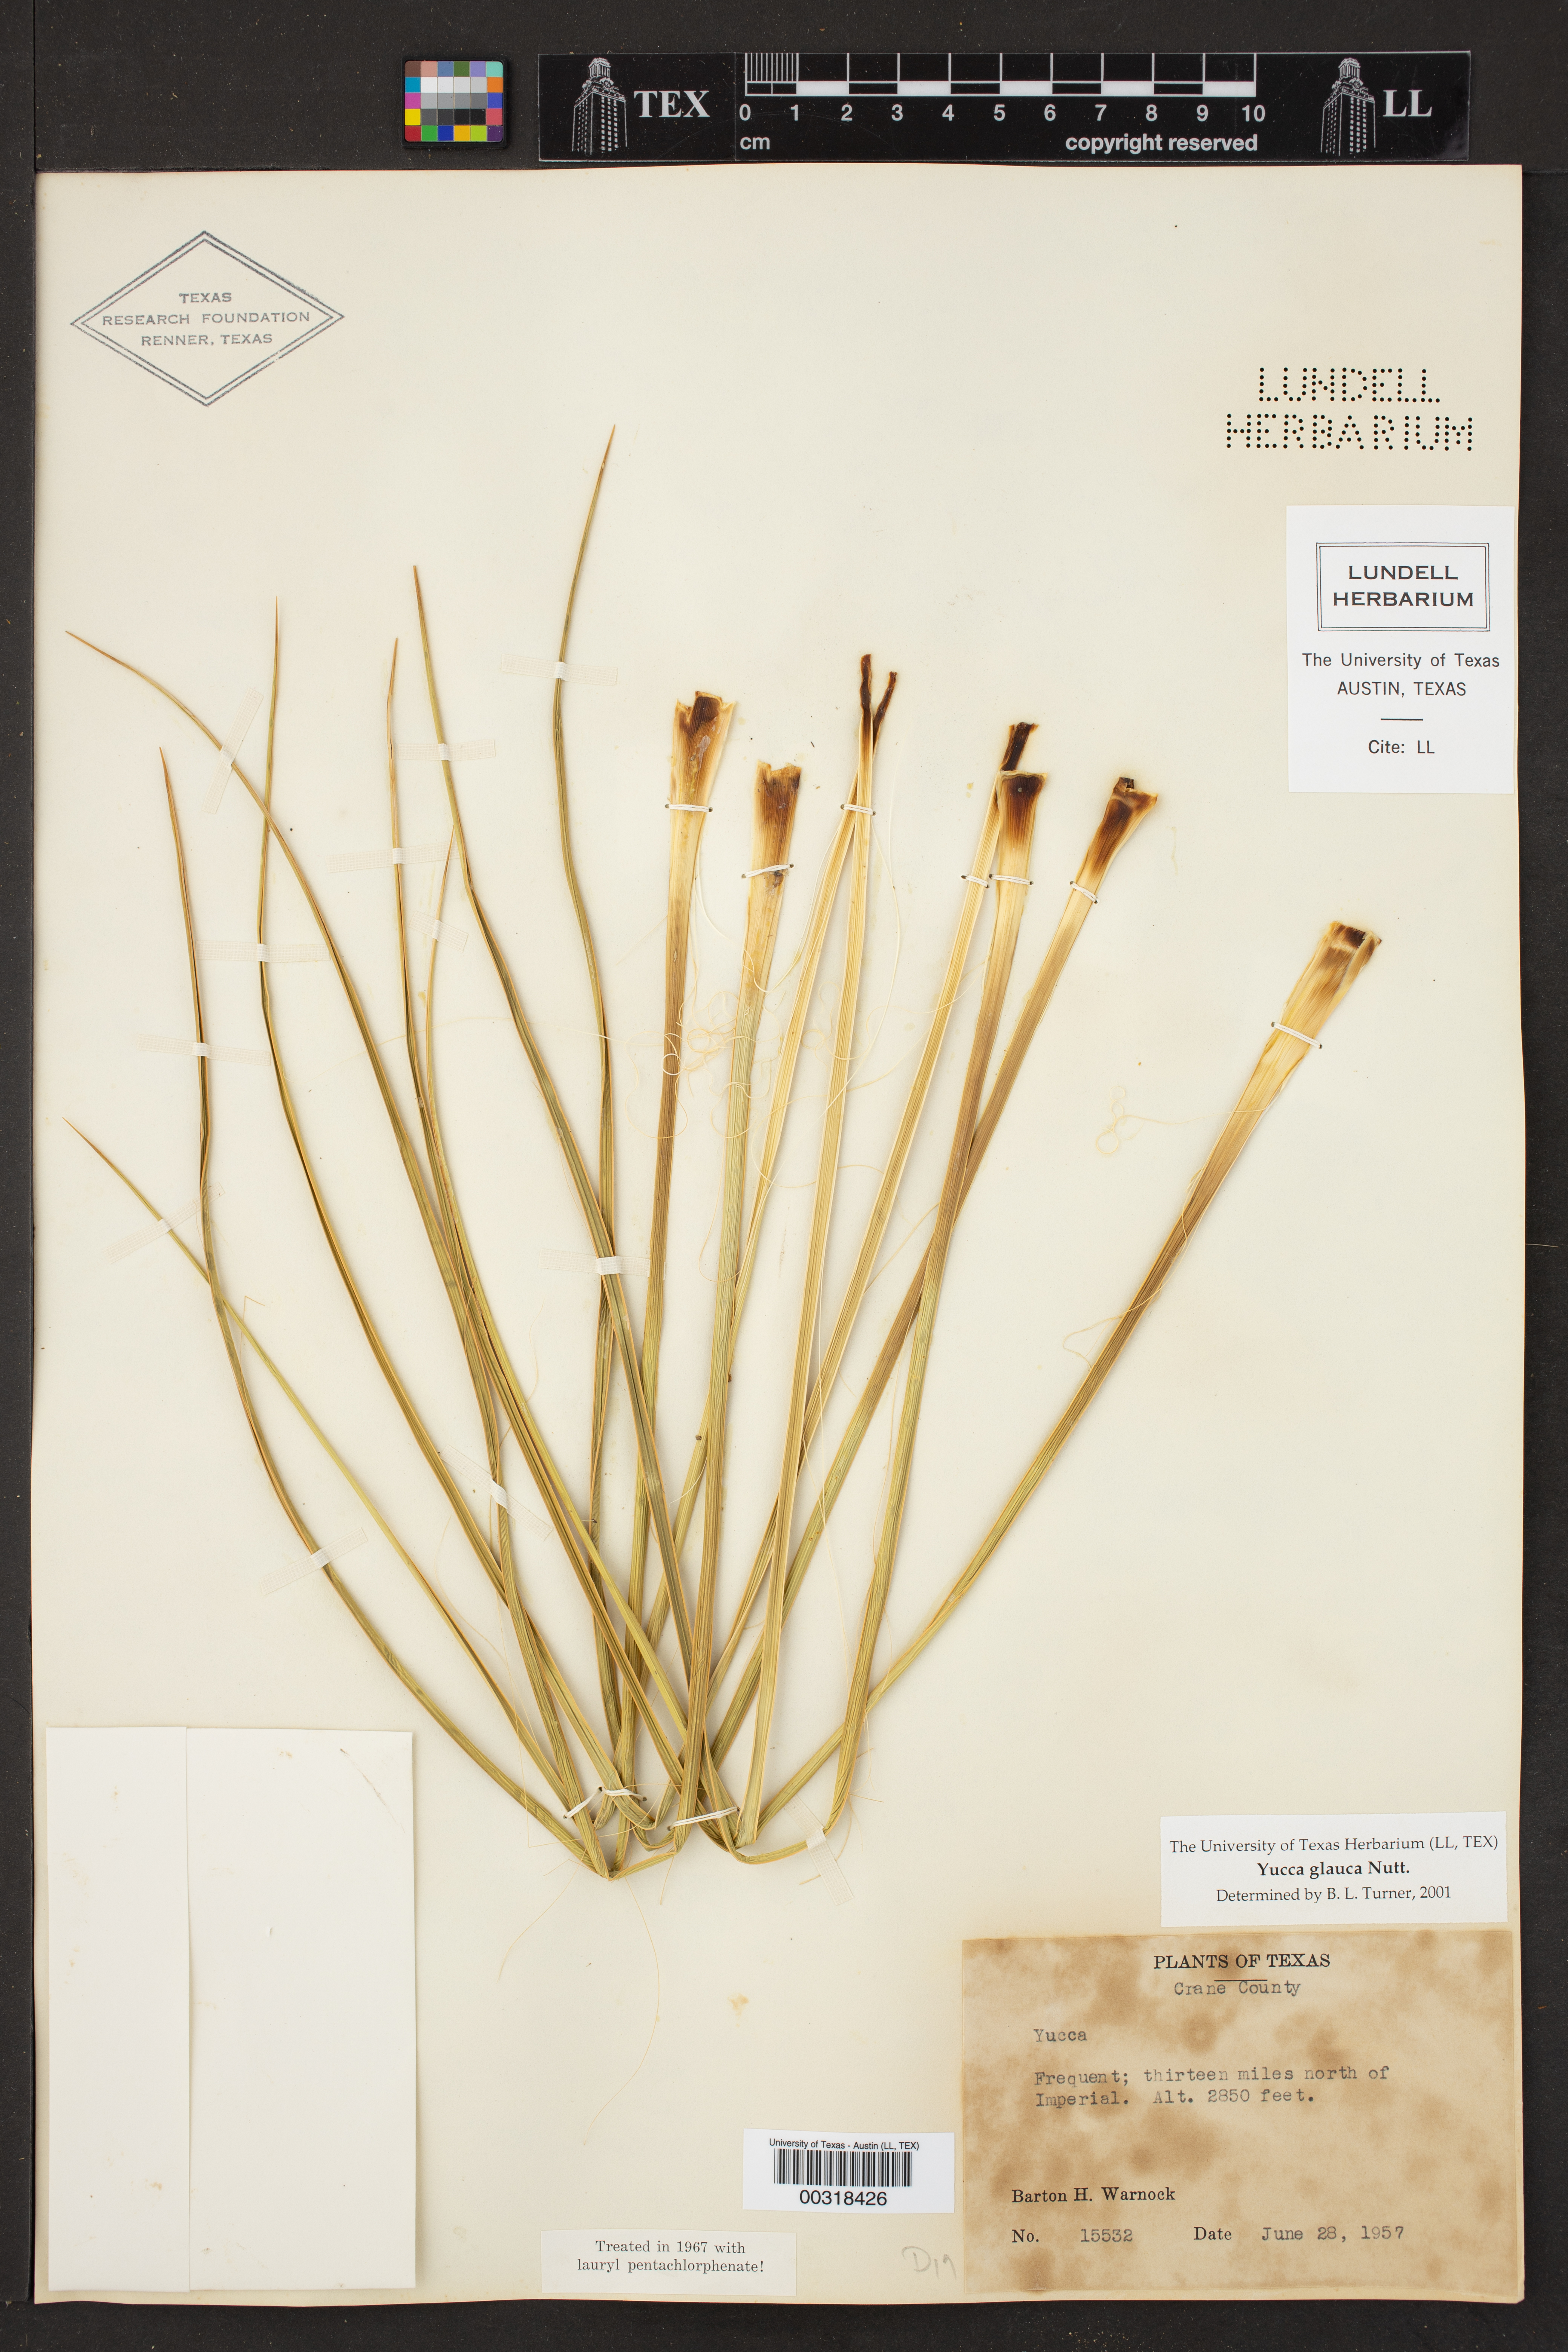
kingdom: Plantae
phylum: Tracheophyta
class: Liliopsida
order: Asparagales
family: Asparagaceae
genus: Yucca
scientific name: Yucca glauca
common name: Great plains yucca
